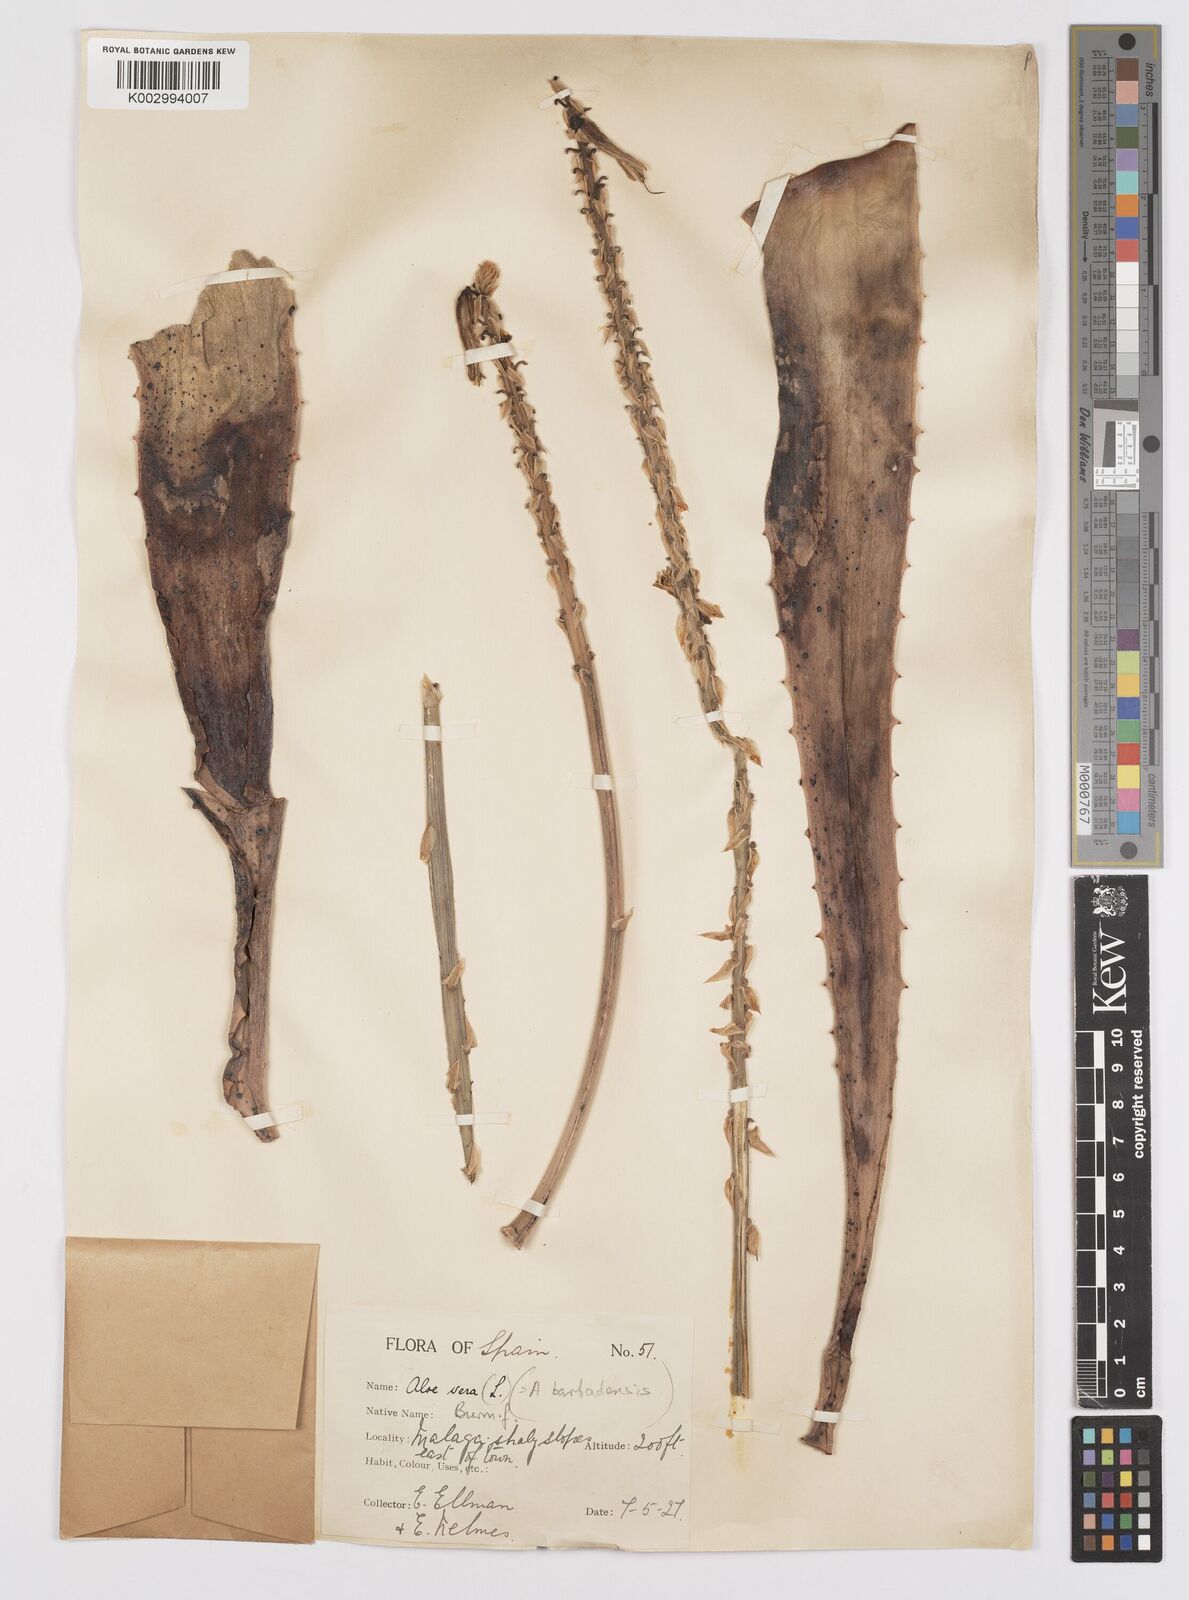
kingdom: Plantae
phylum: Tracheophyta
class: Liliopsida
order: Asparagales
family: Asphodelaceae
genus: Aloe
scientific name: Aloe vera
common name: Barbados aloe
